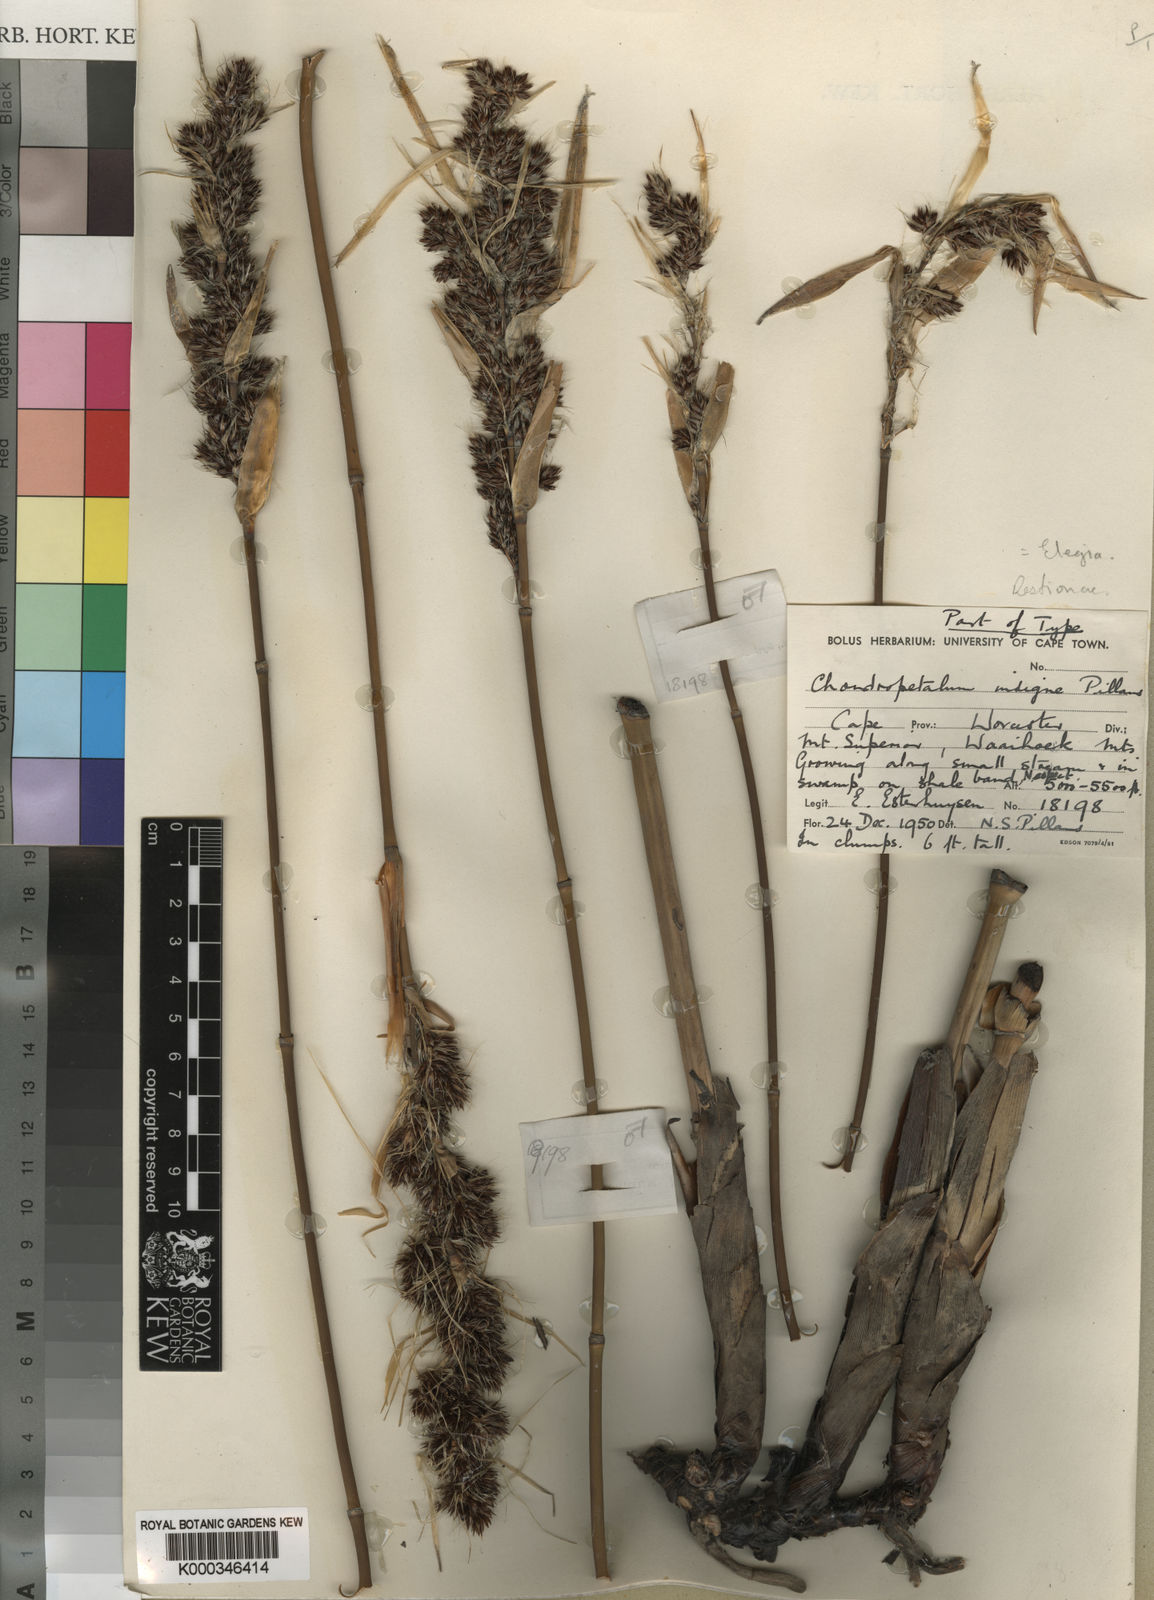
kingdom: Plantae
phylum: Tracheophyta
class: Liliopsida
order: Poales
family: Restionaceae
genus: Askidiosperma
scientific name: Askidiosperma insigne
